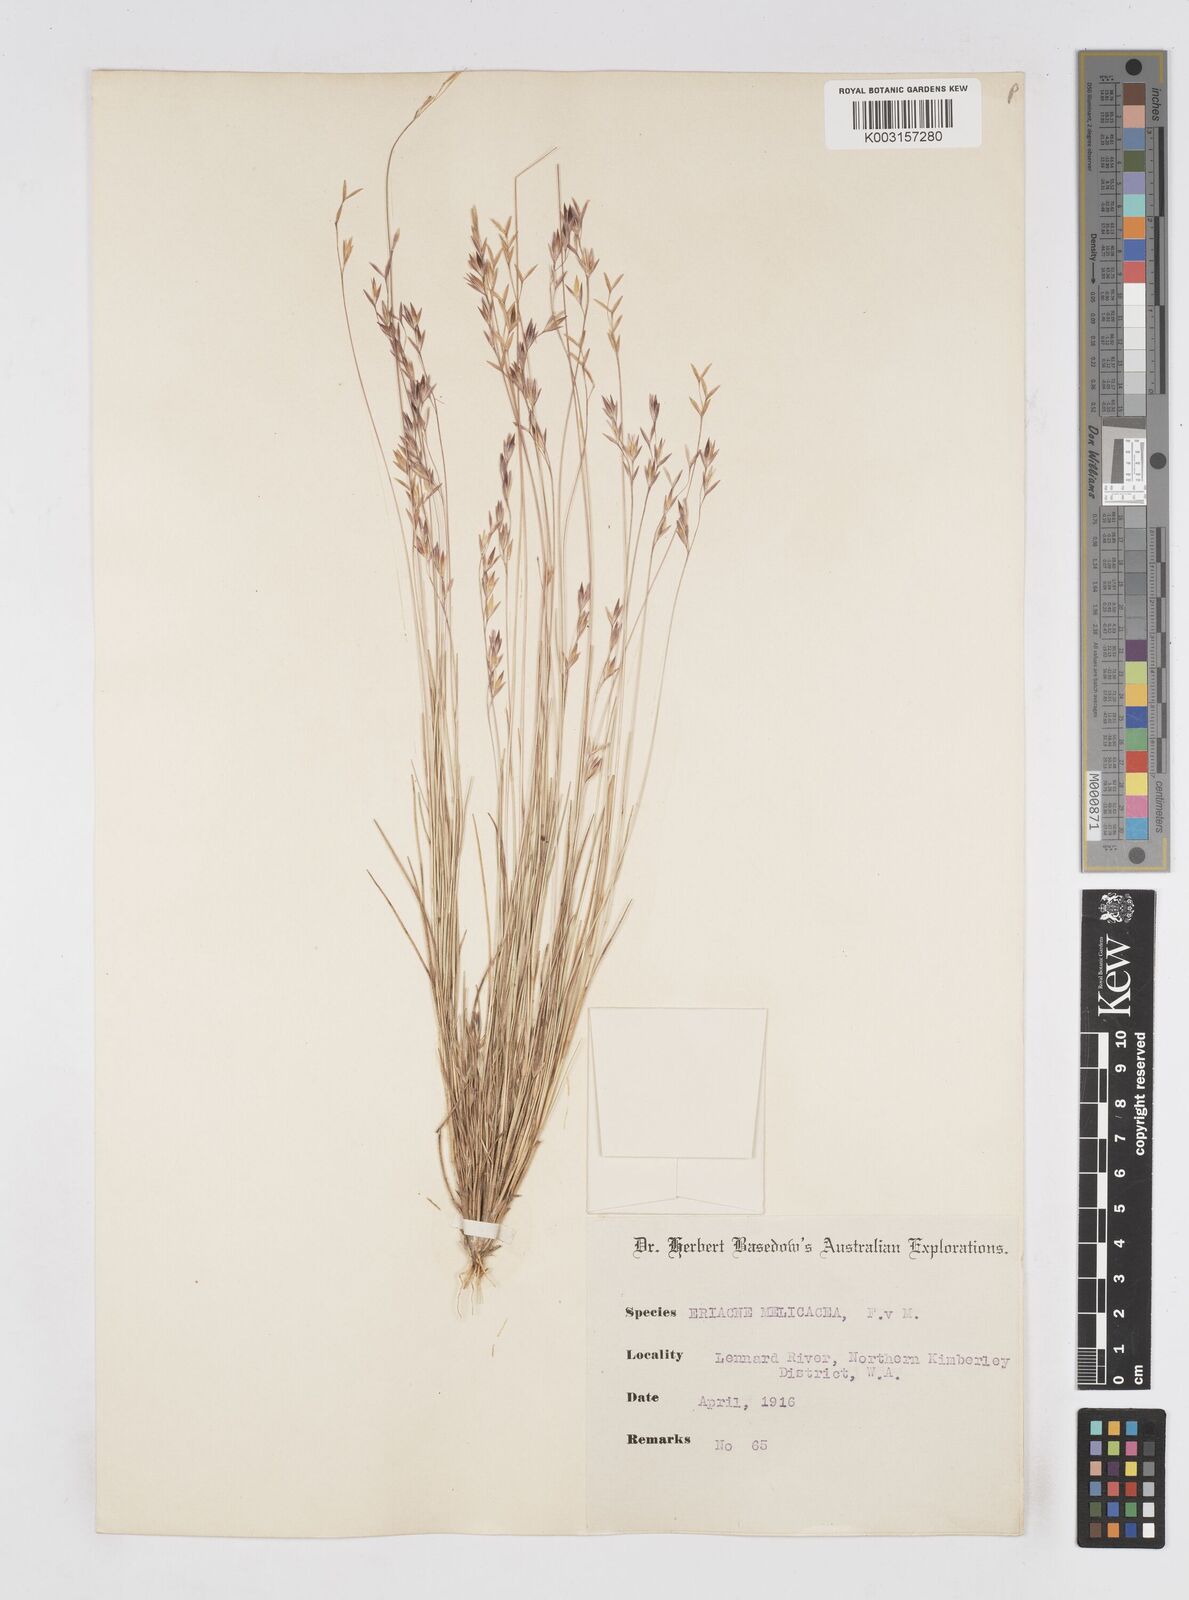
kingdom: Plantae
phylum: Tracheophyta
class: Liliopsida
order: Poales
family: Poaceae
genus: Eriachne
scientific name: Eriachne melicacea
